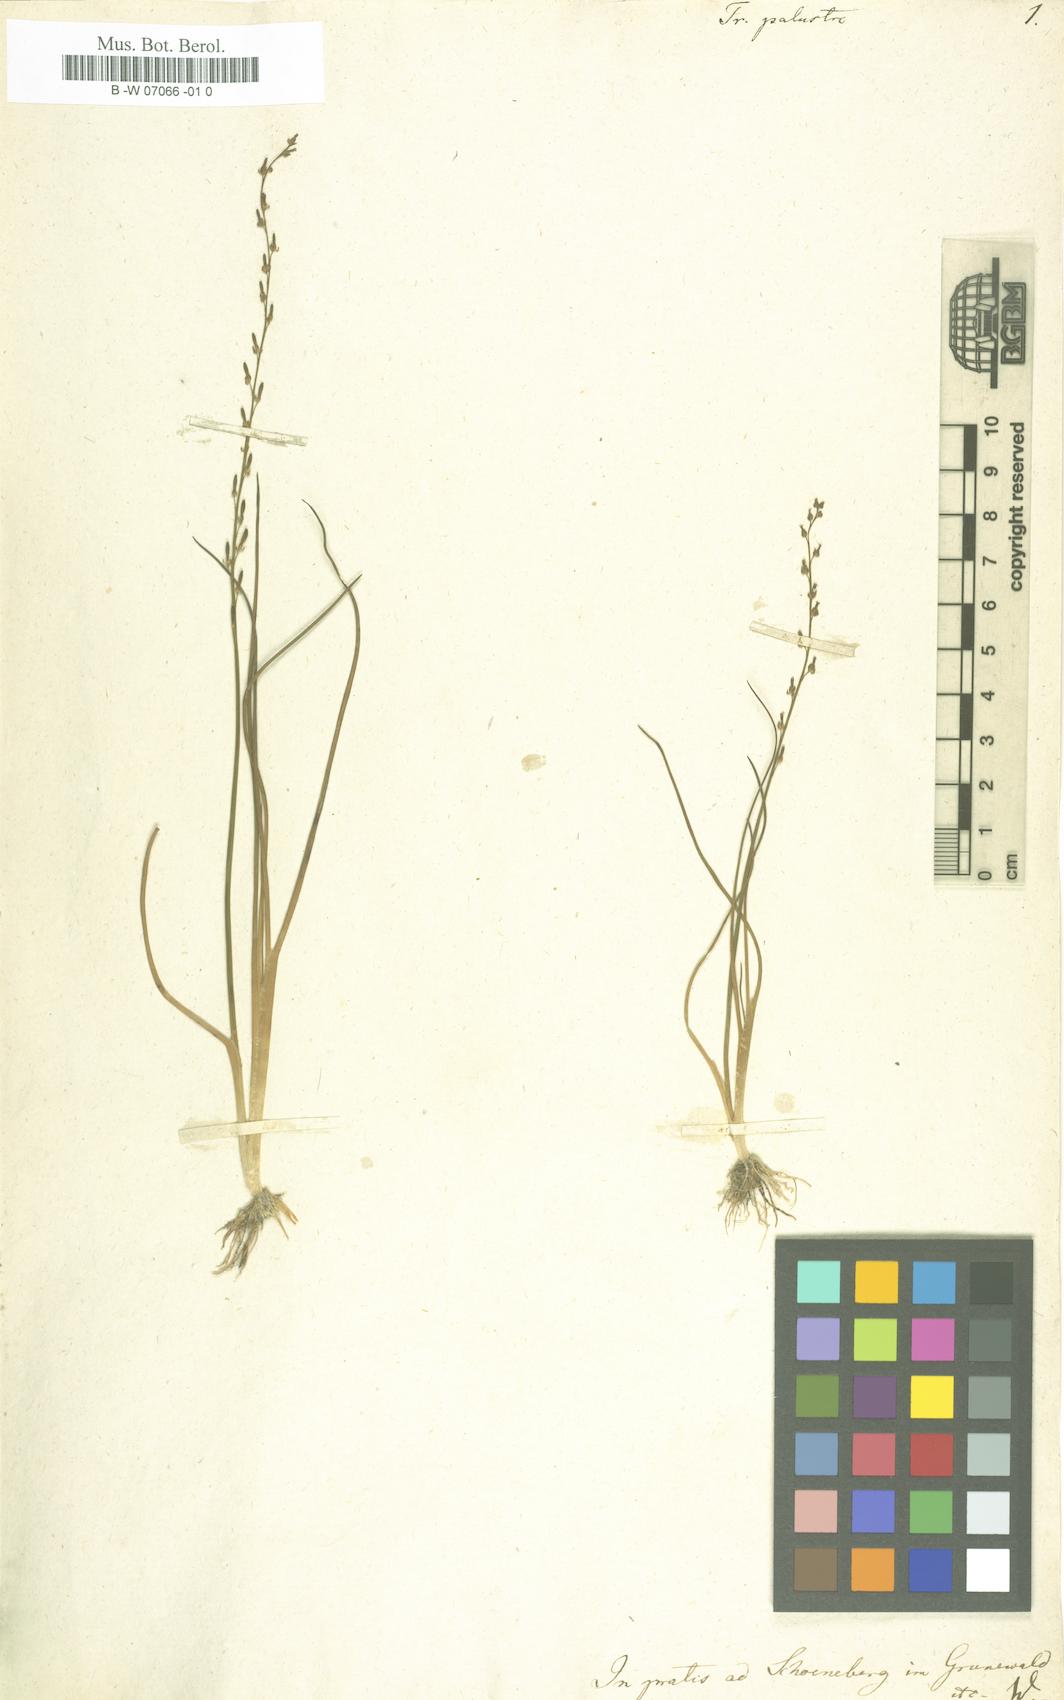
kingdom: Plantae
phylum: Tracheophyta
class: Liliopsida
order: Alismatales
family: Juncaginaceae
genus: Triglochin
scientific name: Triglochin palustris
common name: Marsh arrowgrass
